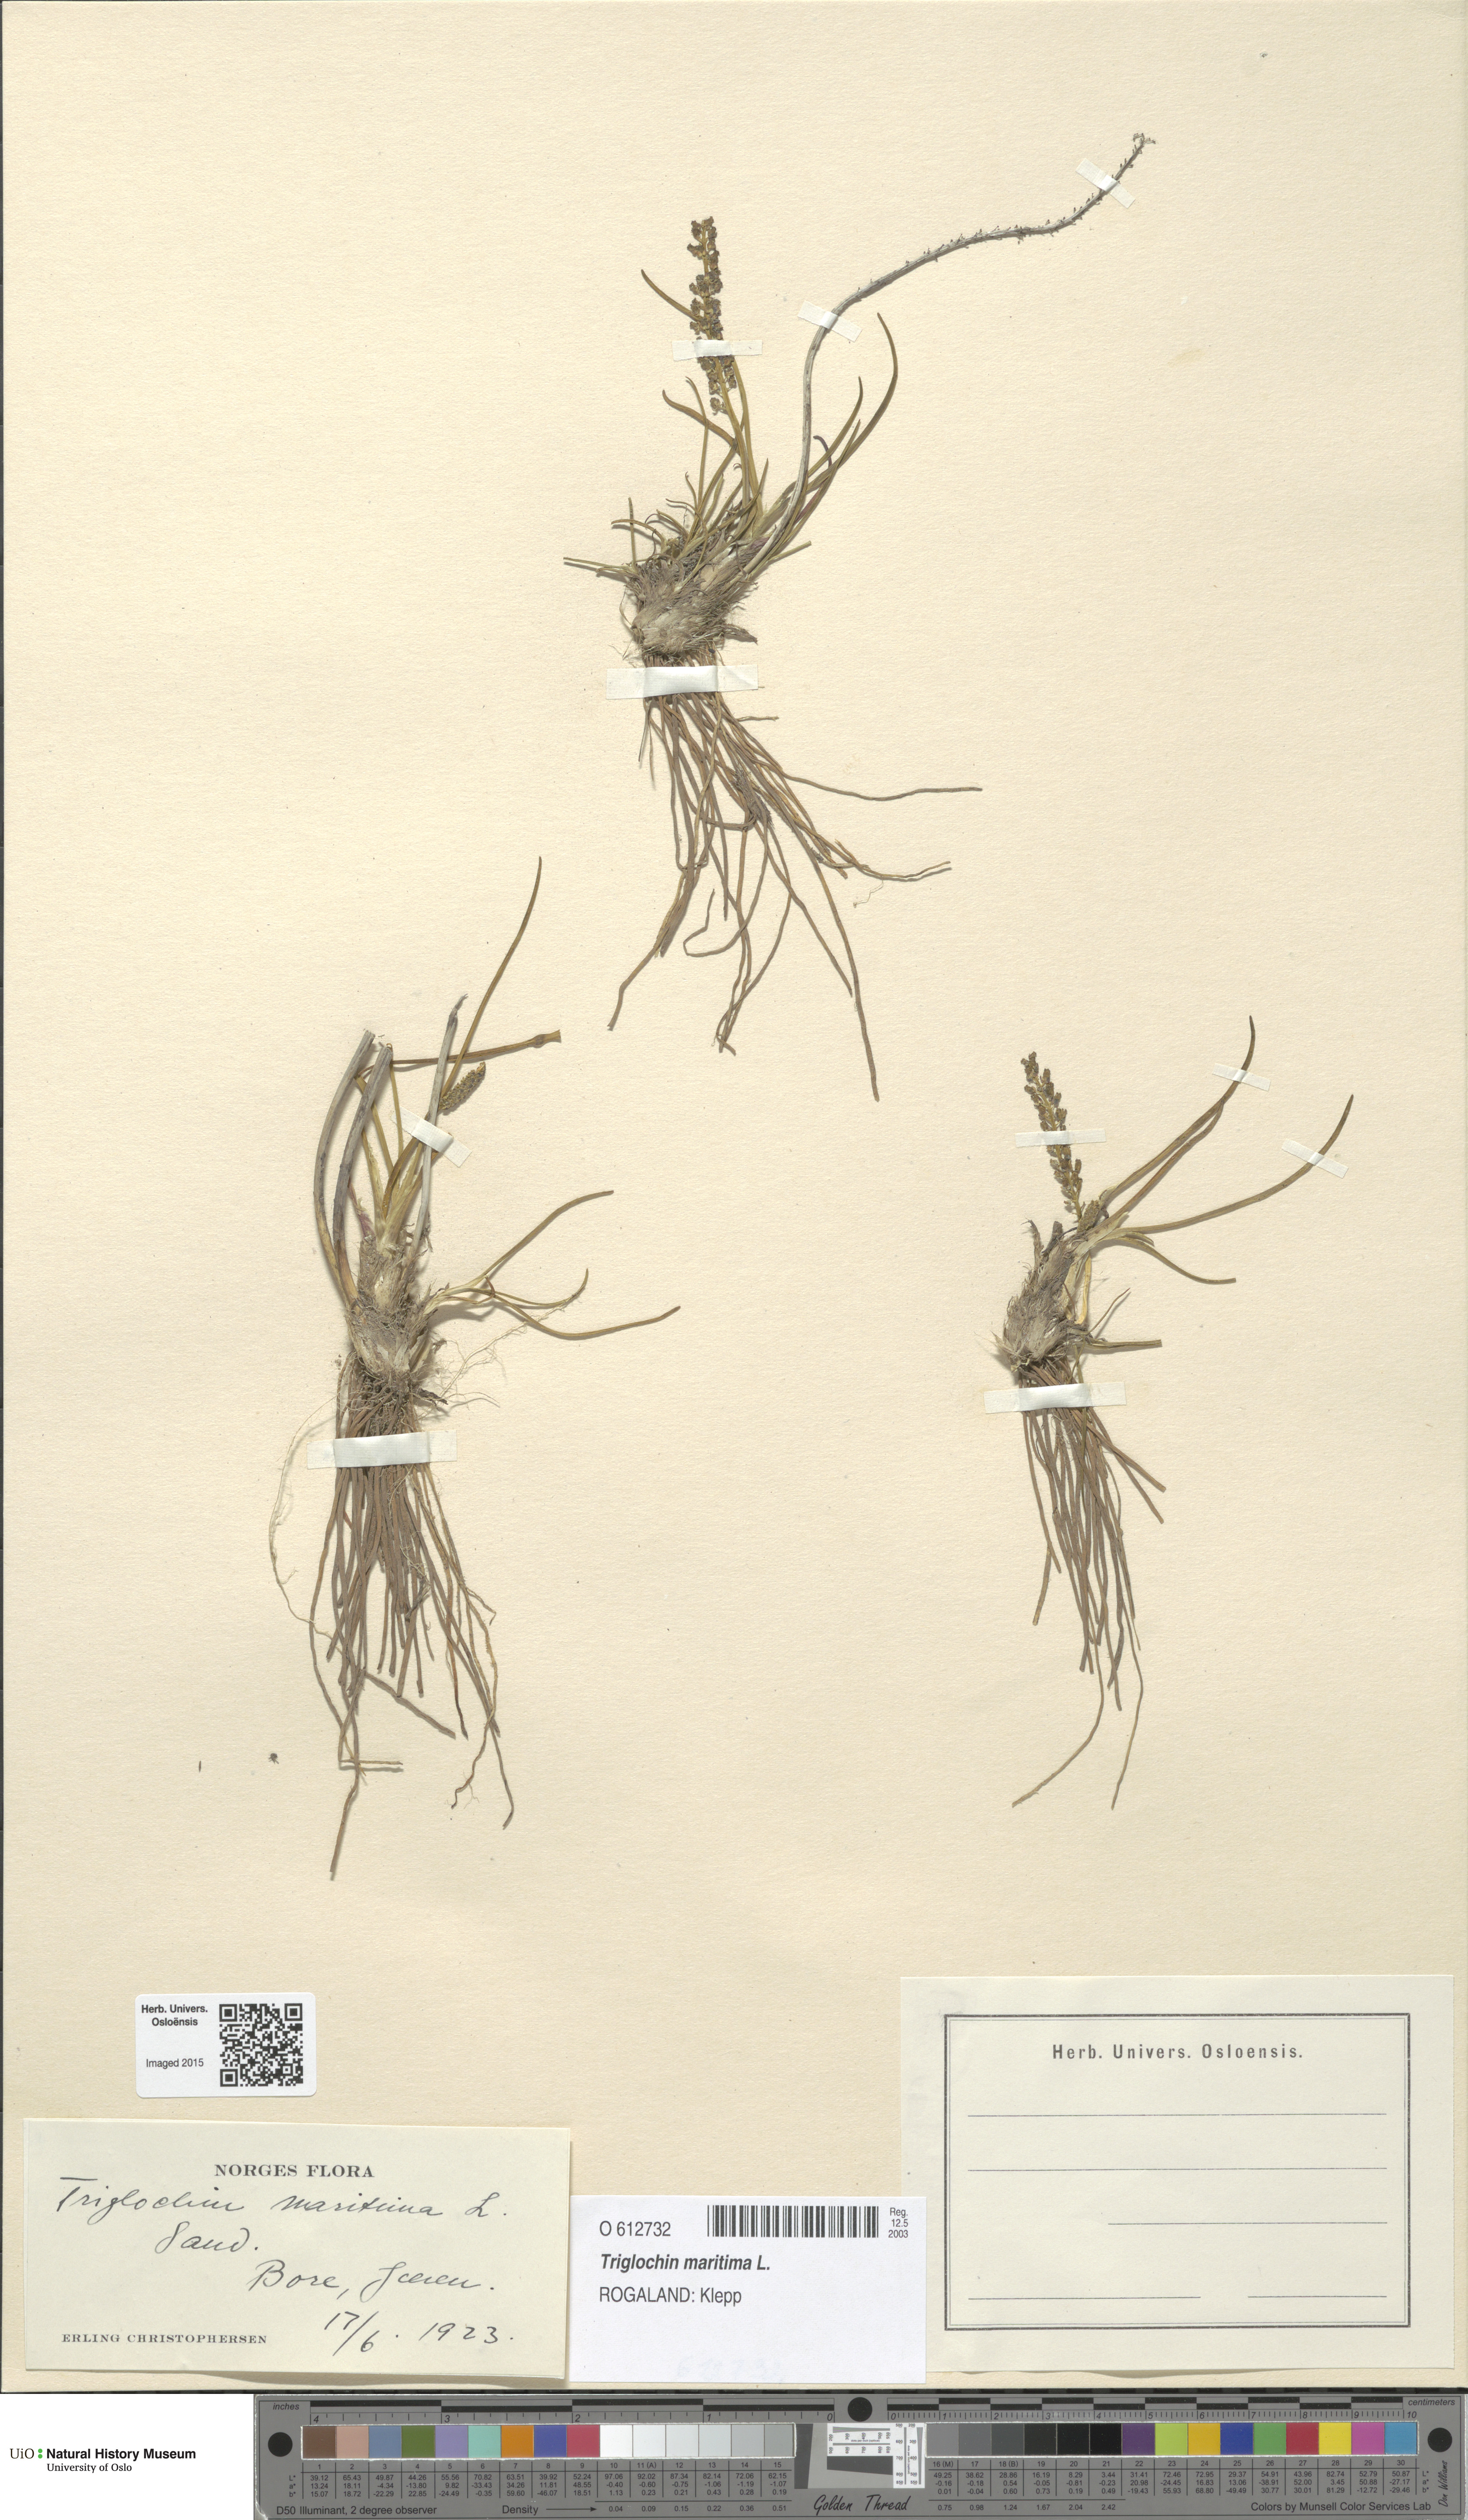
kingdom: Plantae
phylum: Tracheophyta
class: Liliopsida
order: Alismatales
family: Juncaginaceae
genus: Triglochin
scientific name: Triglochin maritima
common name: Sea arrowgrass
